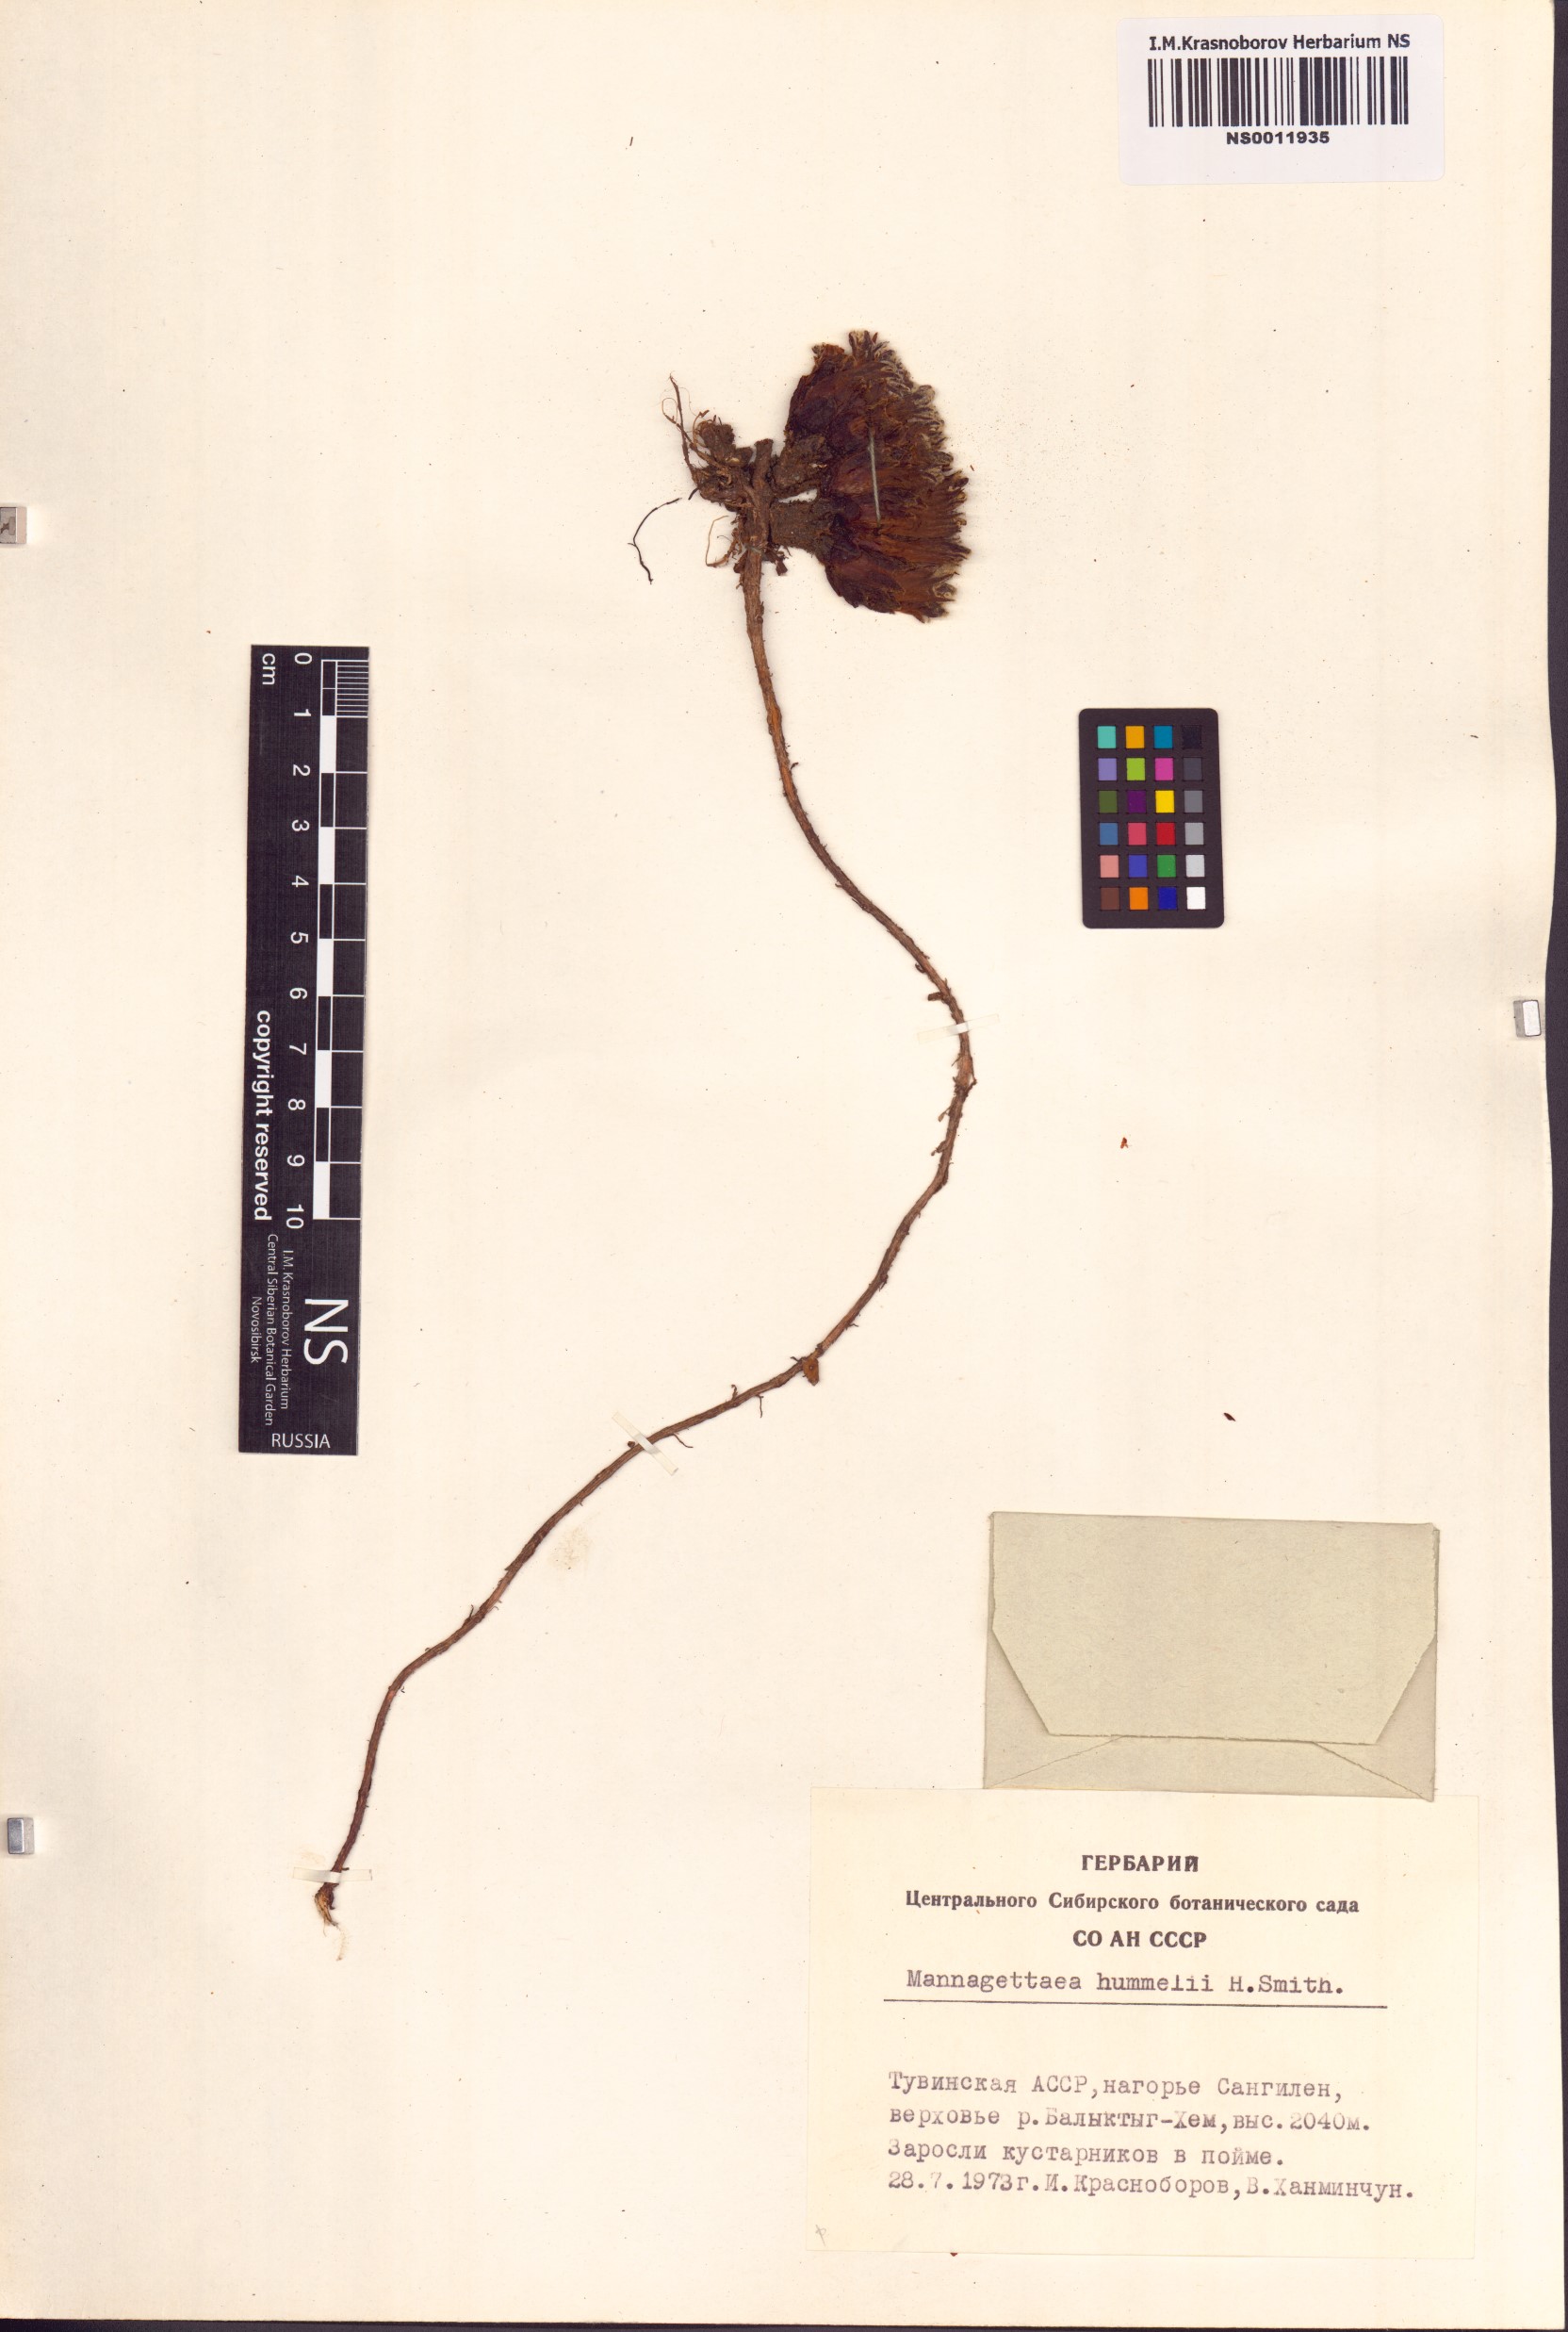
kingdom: Plantae
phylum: Tracheophyta
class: Magnoliopsida
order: Lamiales
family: Orobanchaceae
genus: Mannagettaea
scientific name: Mannagettaea hummelii
